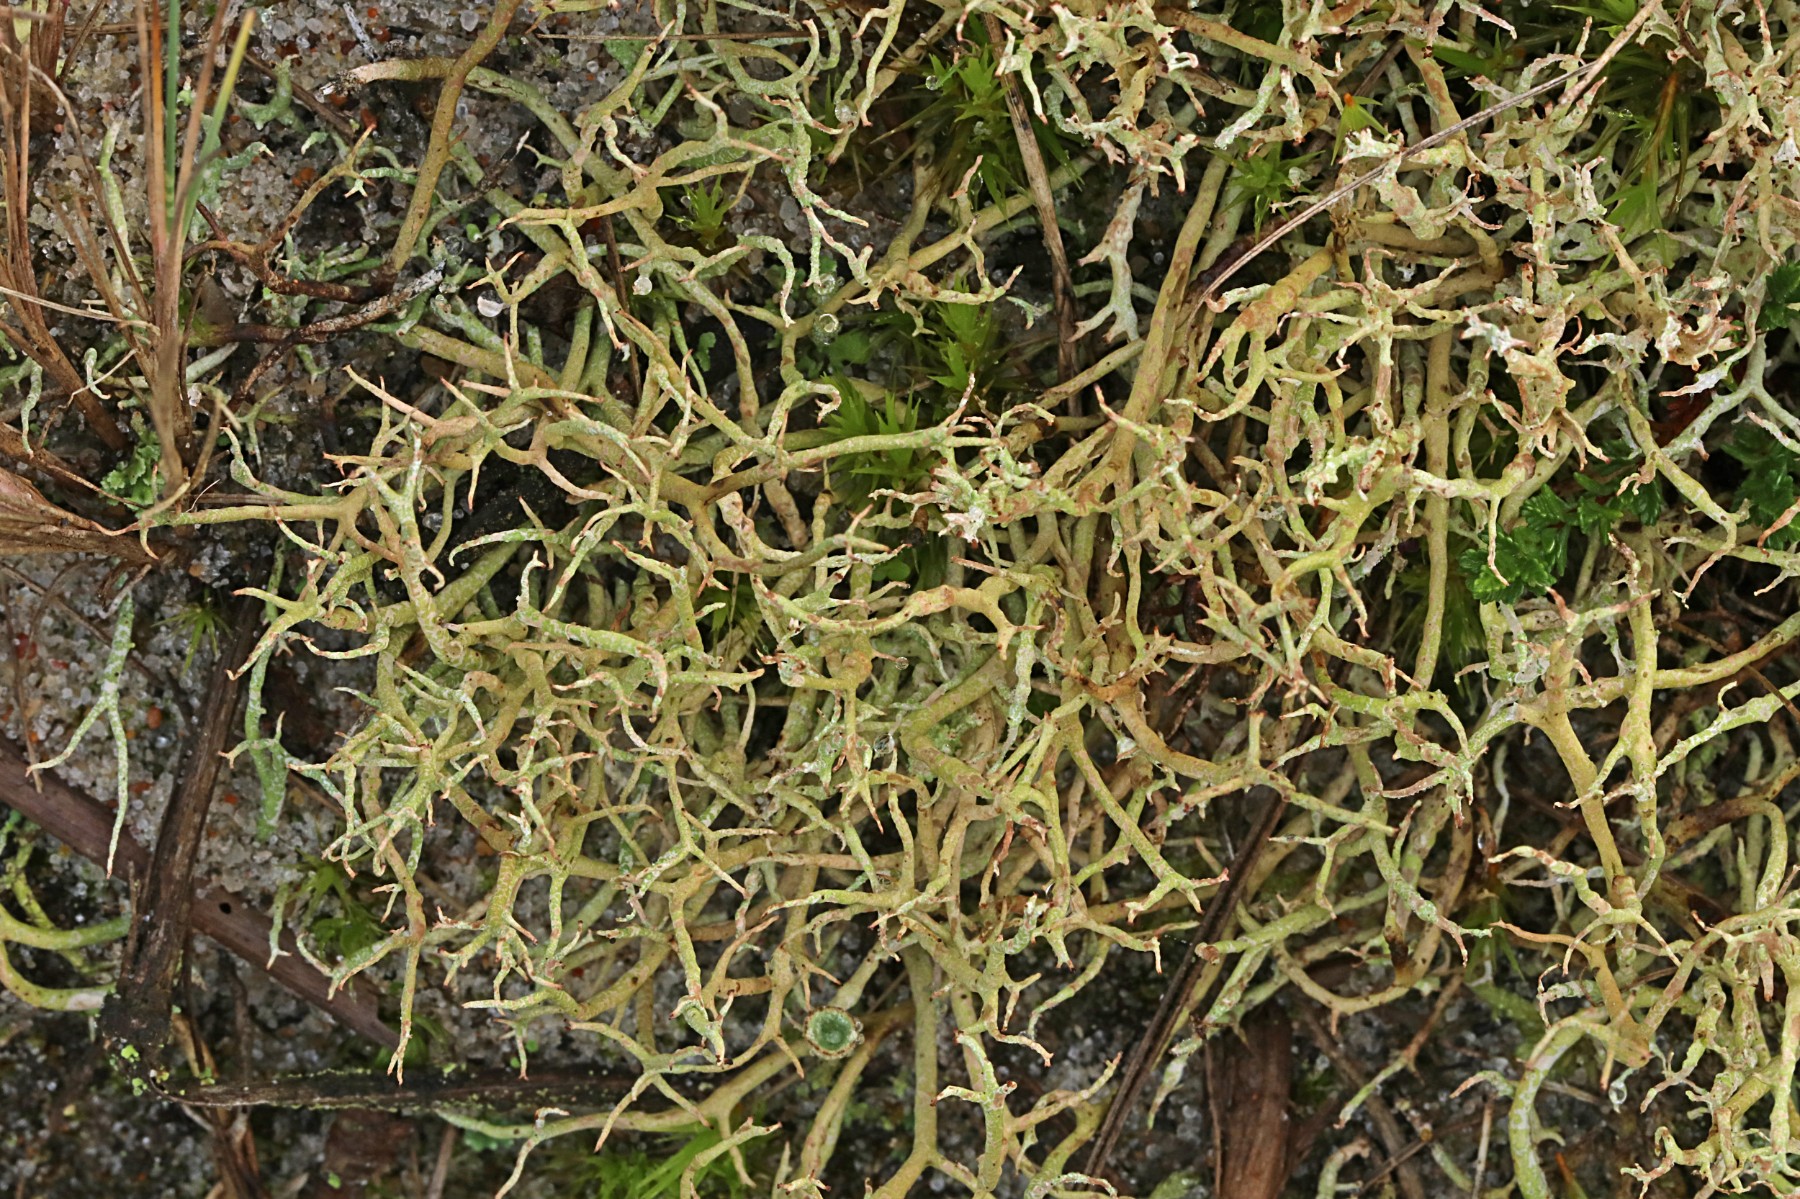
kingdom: Fungi
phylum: Ascomycota
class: Lecanoromycetes
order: Lecanorales
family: Cladoniaceae
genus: Cladonia
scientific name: Cladonia furcata
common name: kløftet bægerlav
